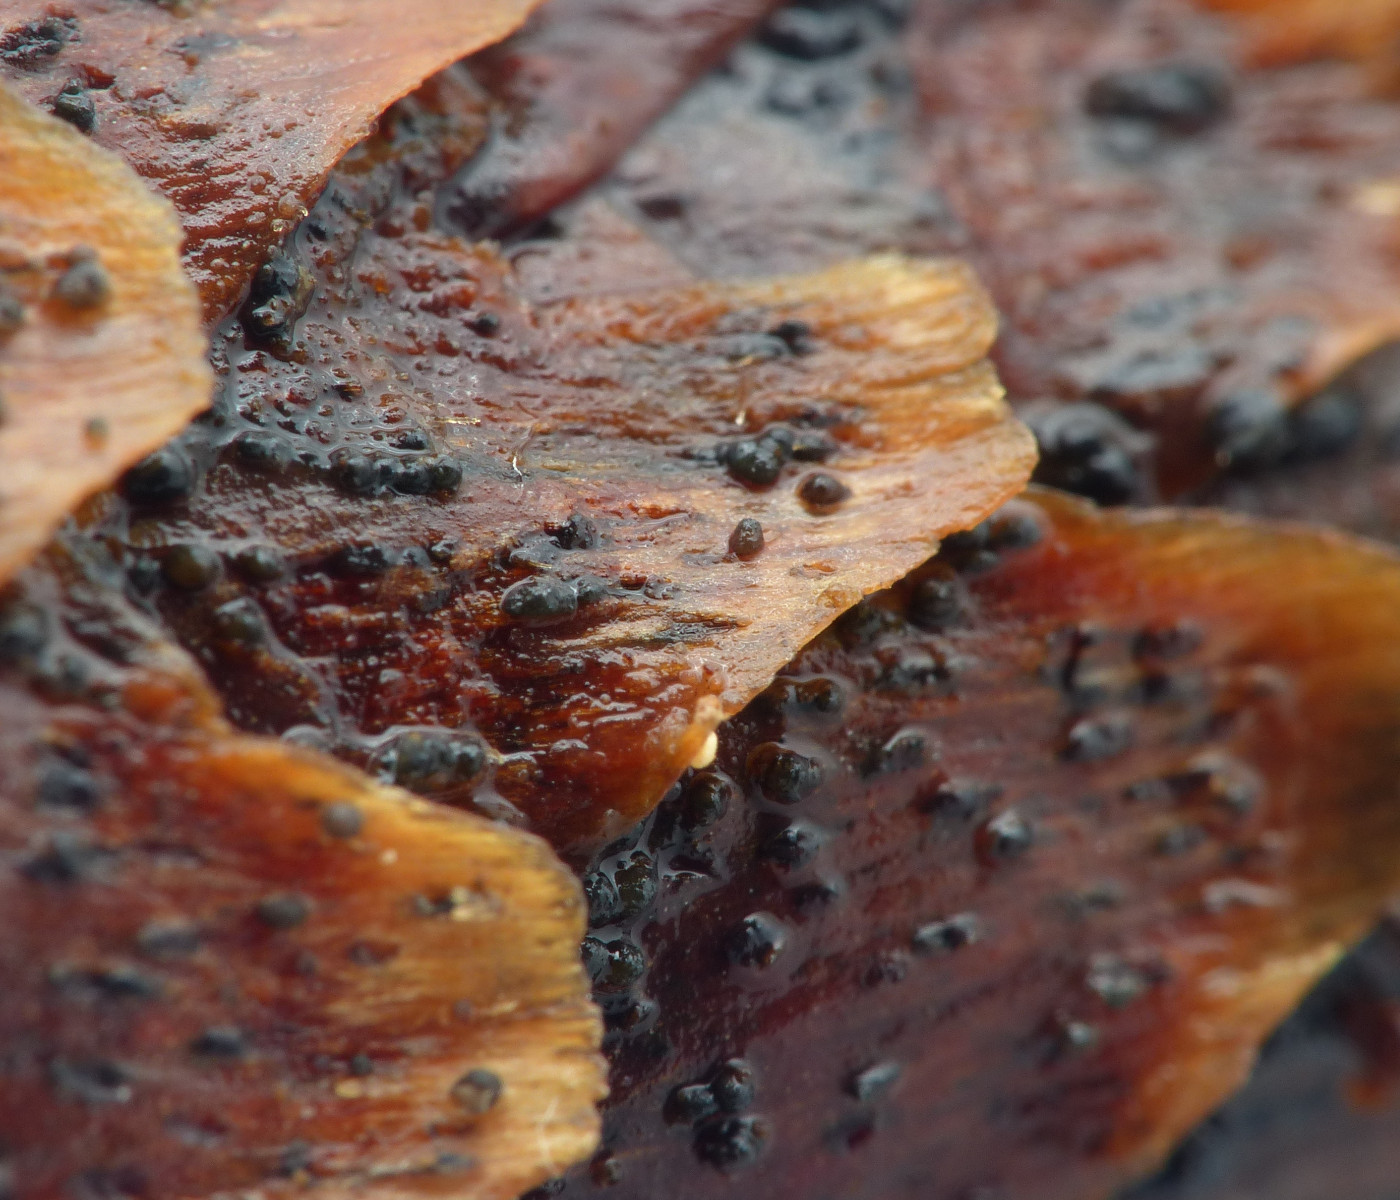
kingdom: Fungi
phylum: Ascomycota
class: Sordariomycetes
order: Diaporthales
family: Gnomoniaceae
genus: Sirococcus
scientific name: Sirococcus conigenus
